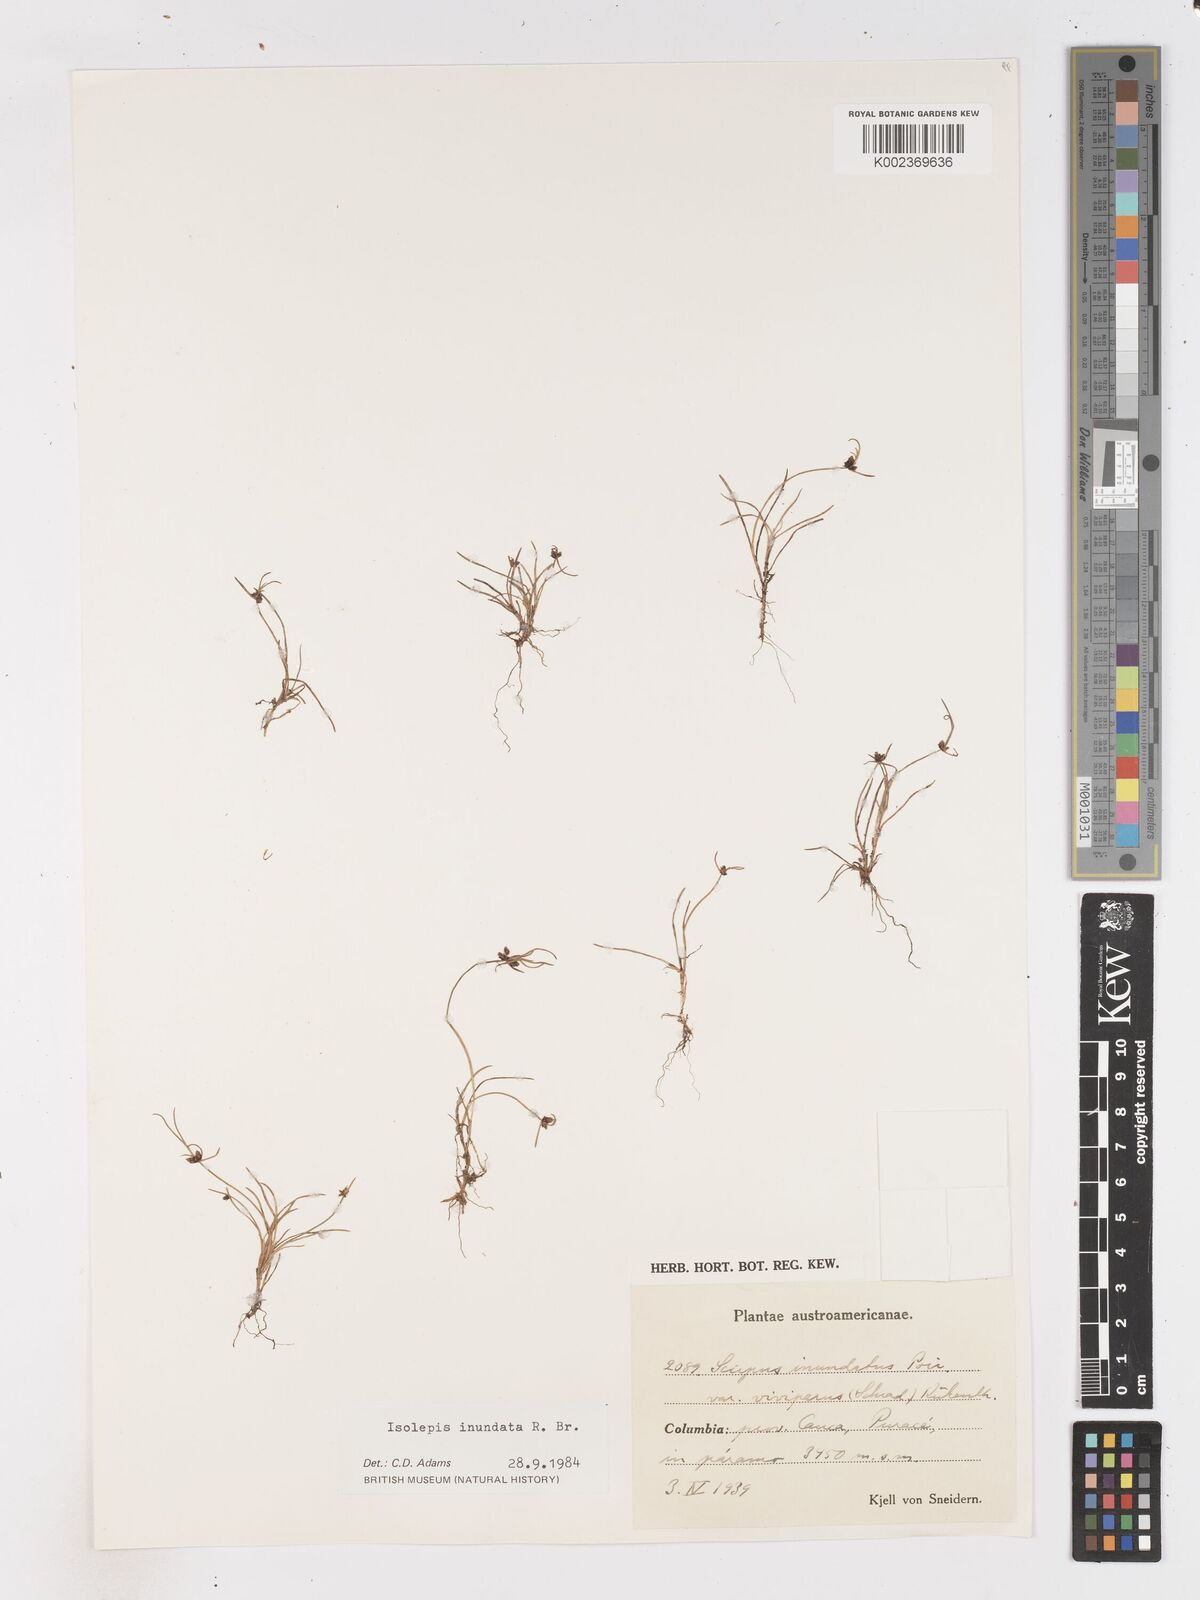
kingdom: Plantae
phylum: Tracheophyta
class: Liliopsida
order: Poales
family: Cyperaceae
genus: Isolepis
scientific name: Isolepis inundata
